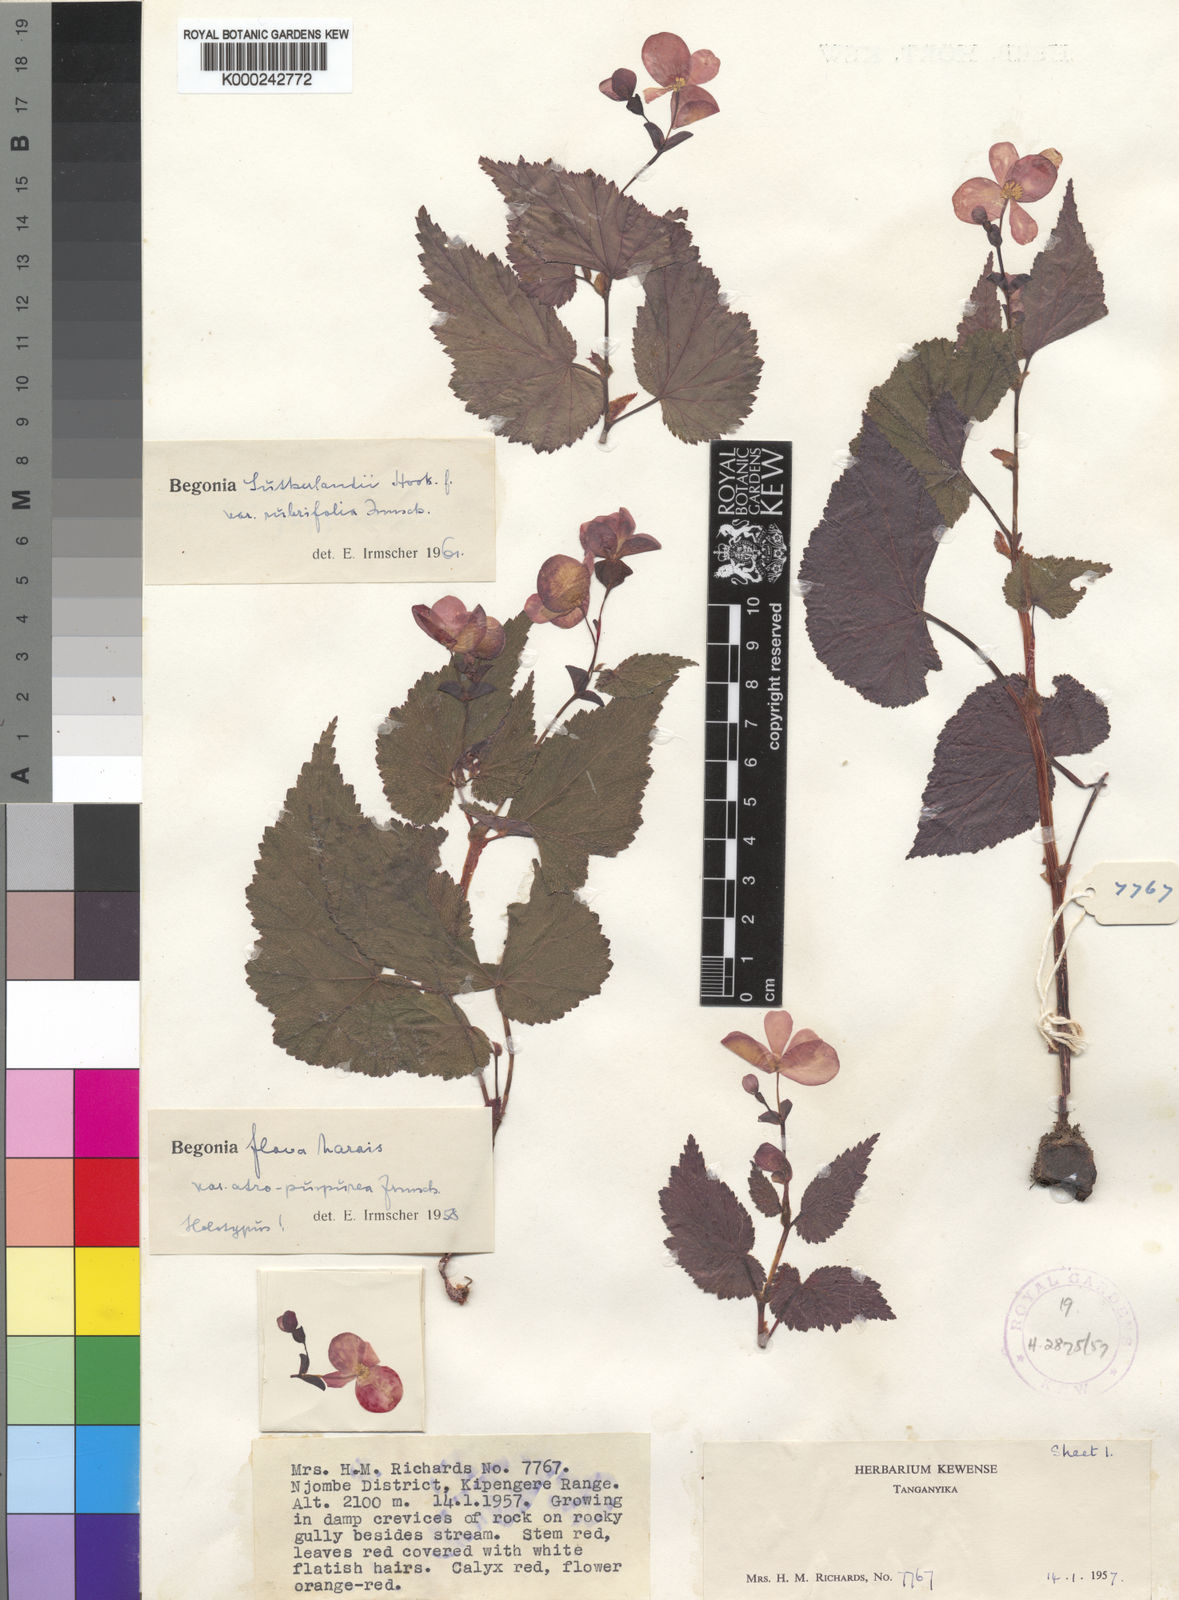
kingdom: Plantae
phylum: Tracheophyta
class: Magnoliopsida
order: Cucurbitales
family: Begoniaceae
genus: Begonia
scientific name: Begonia sutherlandii
